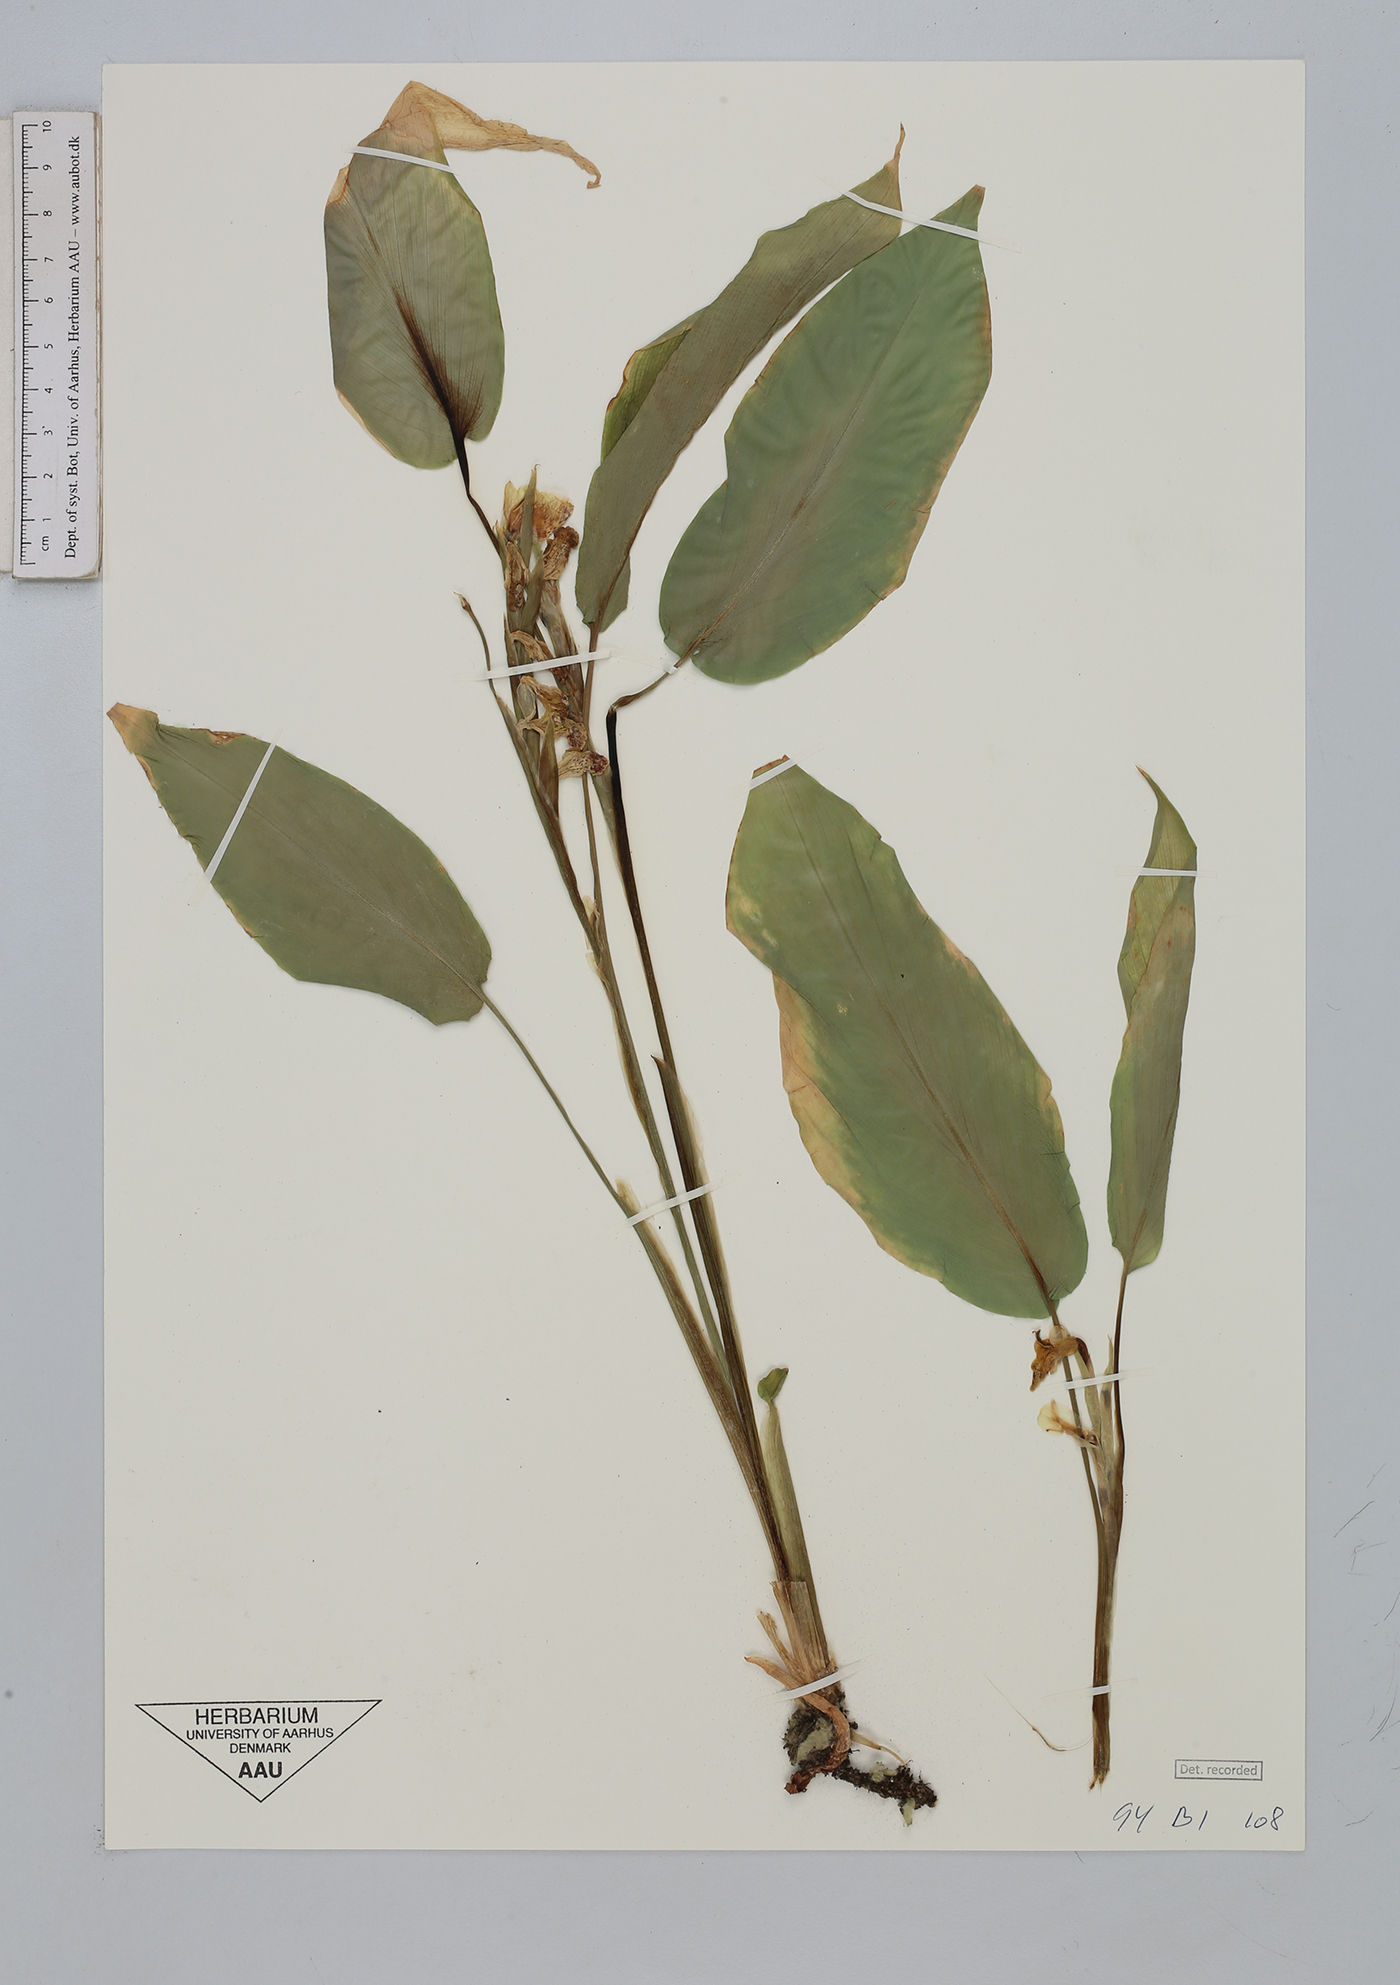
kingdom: Plantae
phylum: Tracheophyta
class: Liliopsida
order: Zingiberales
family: Zingiberaceae
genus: Boesenbergia
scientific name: Boesenbergia
